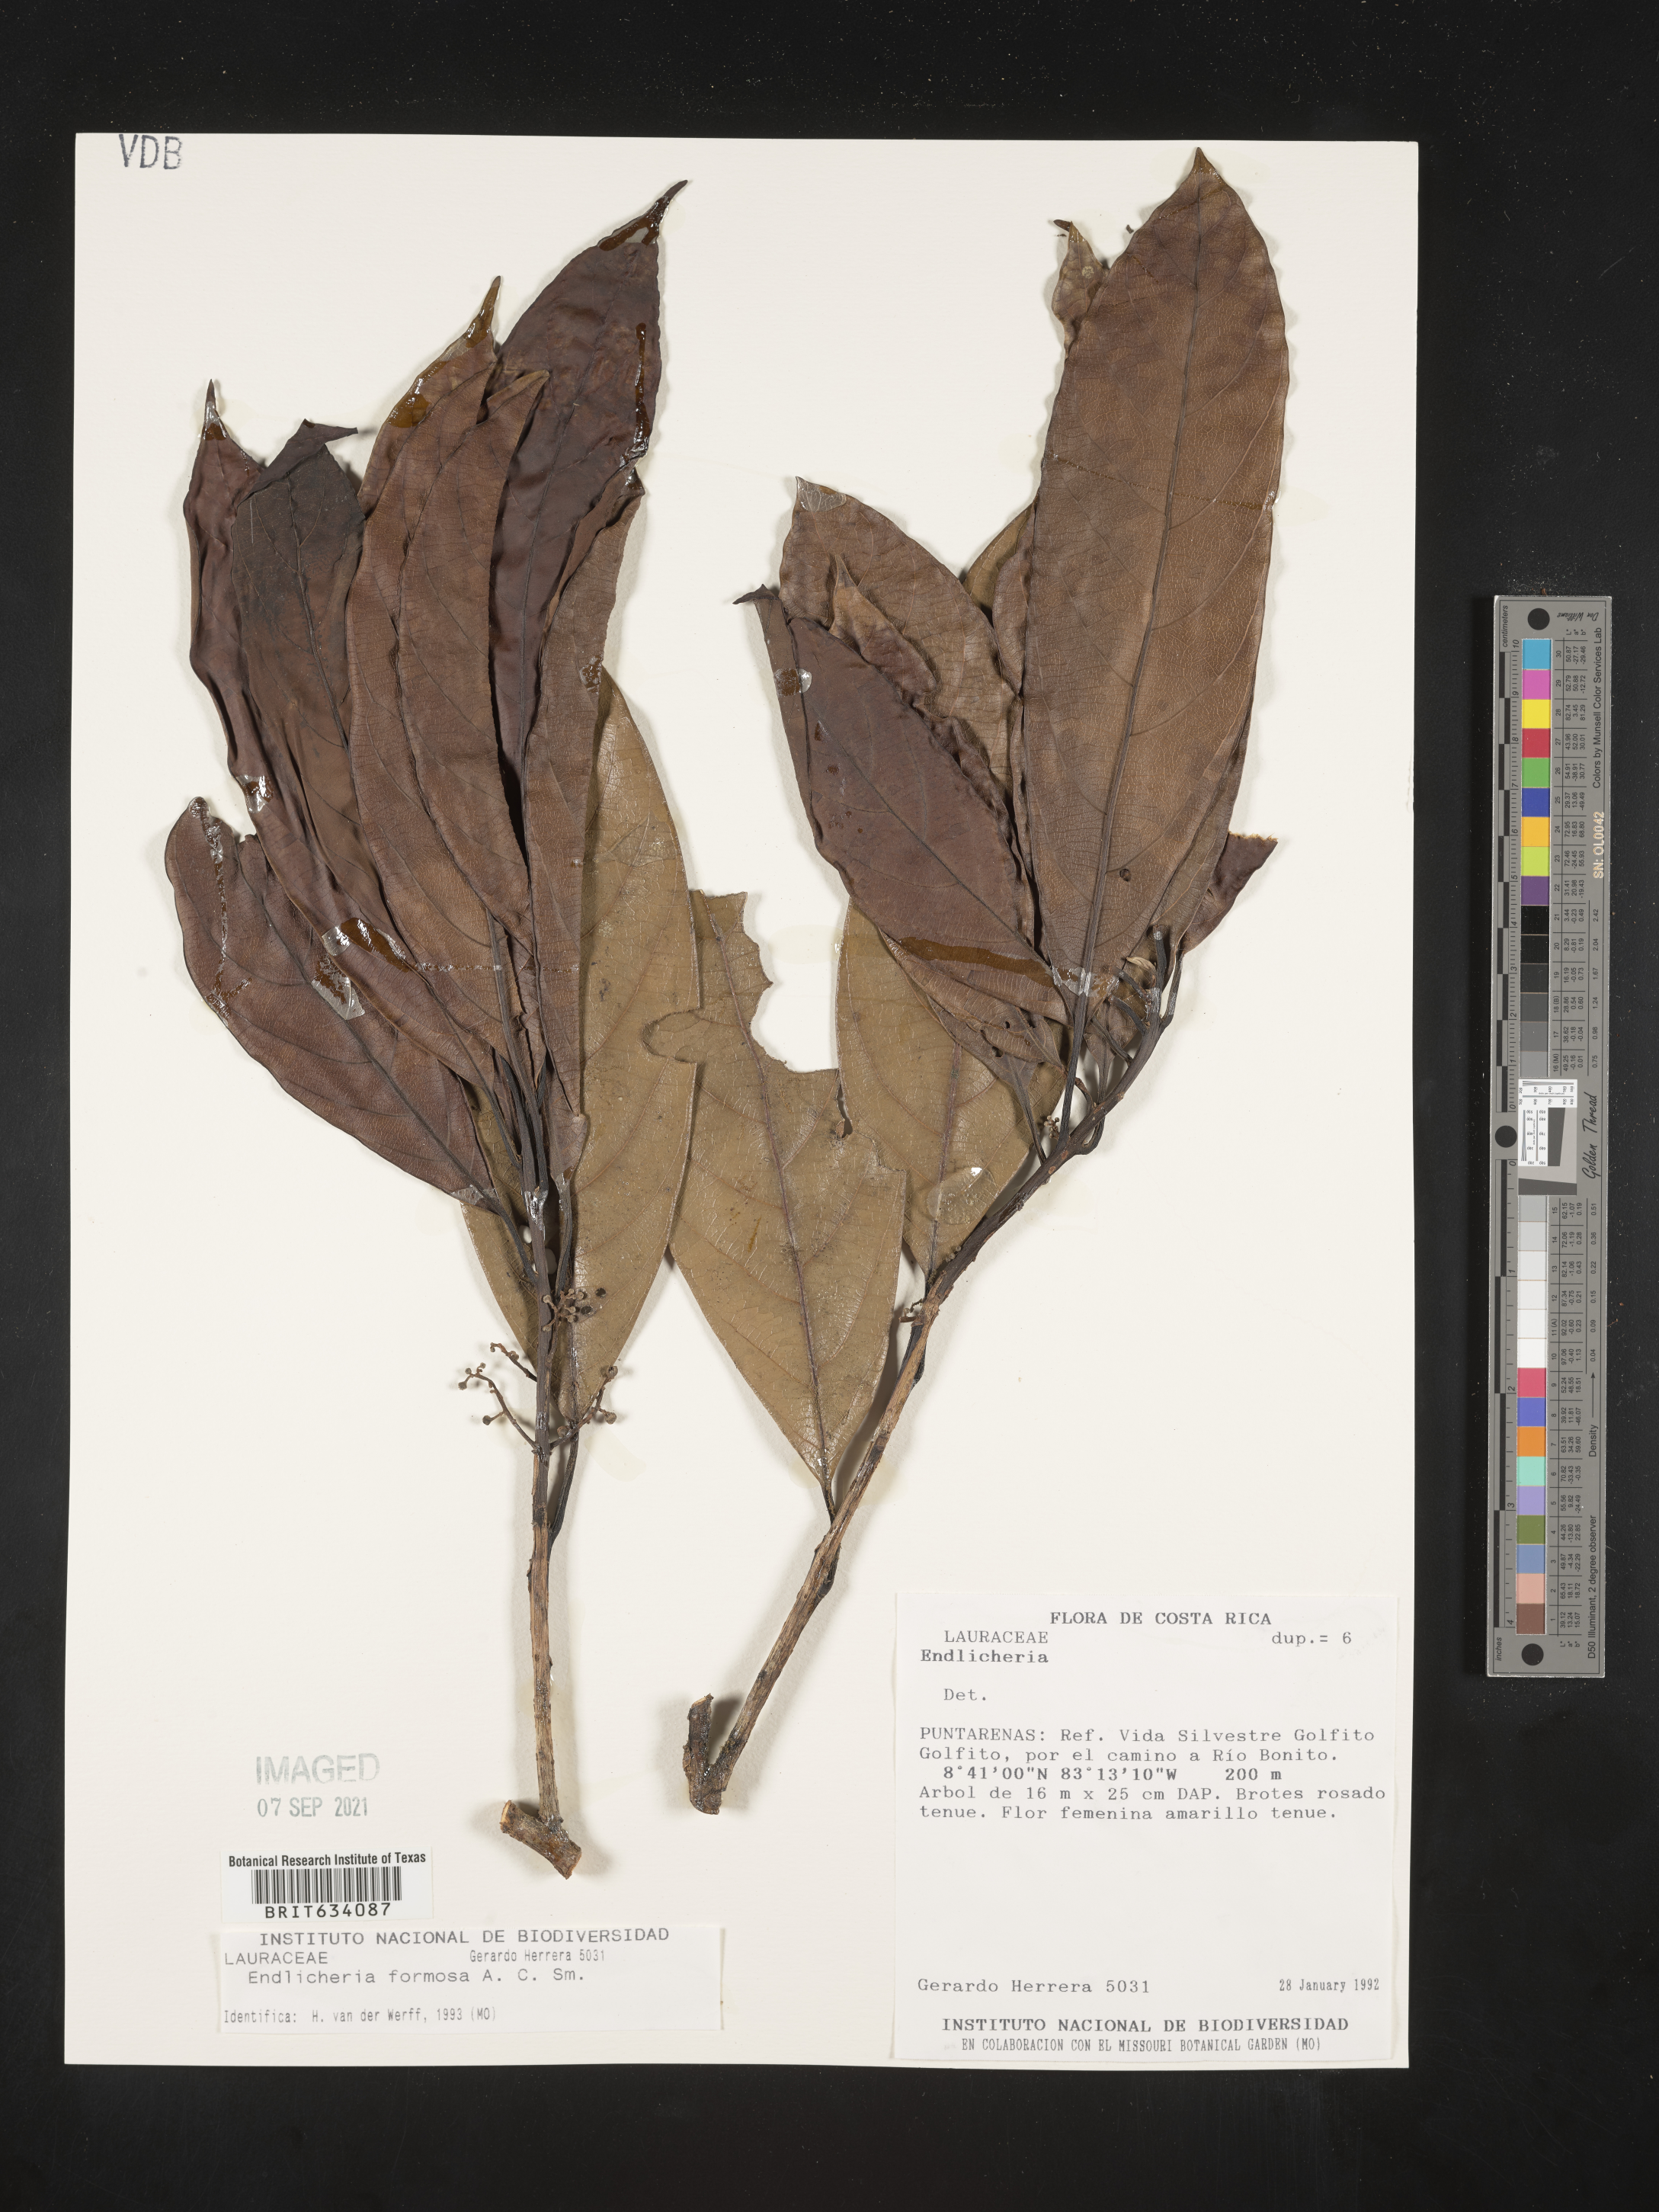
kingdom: Plantae
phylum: Tracheophyta
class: Magnoliopsida
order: Laurales
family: Lauraceae
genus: Endlicheria
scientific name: Endlicheria
